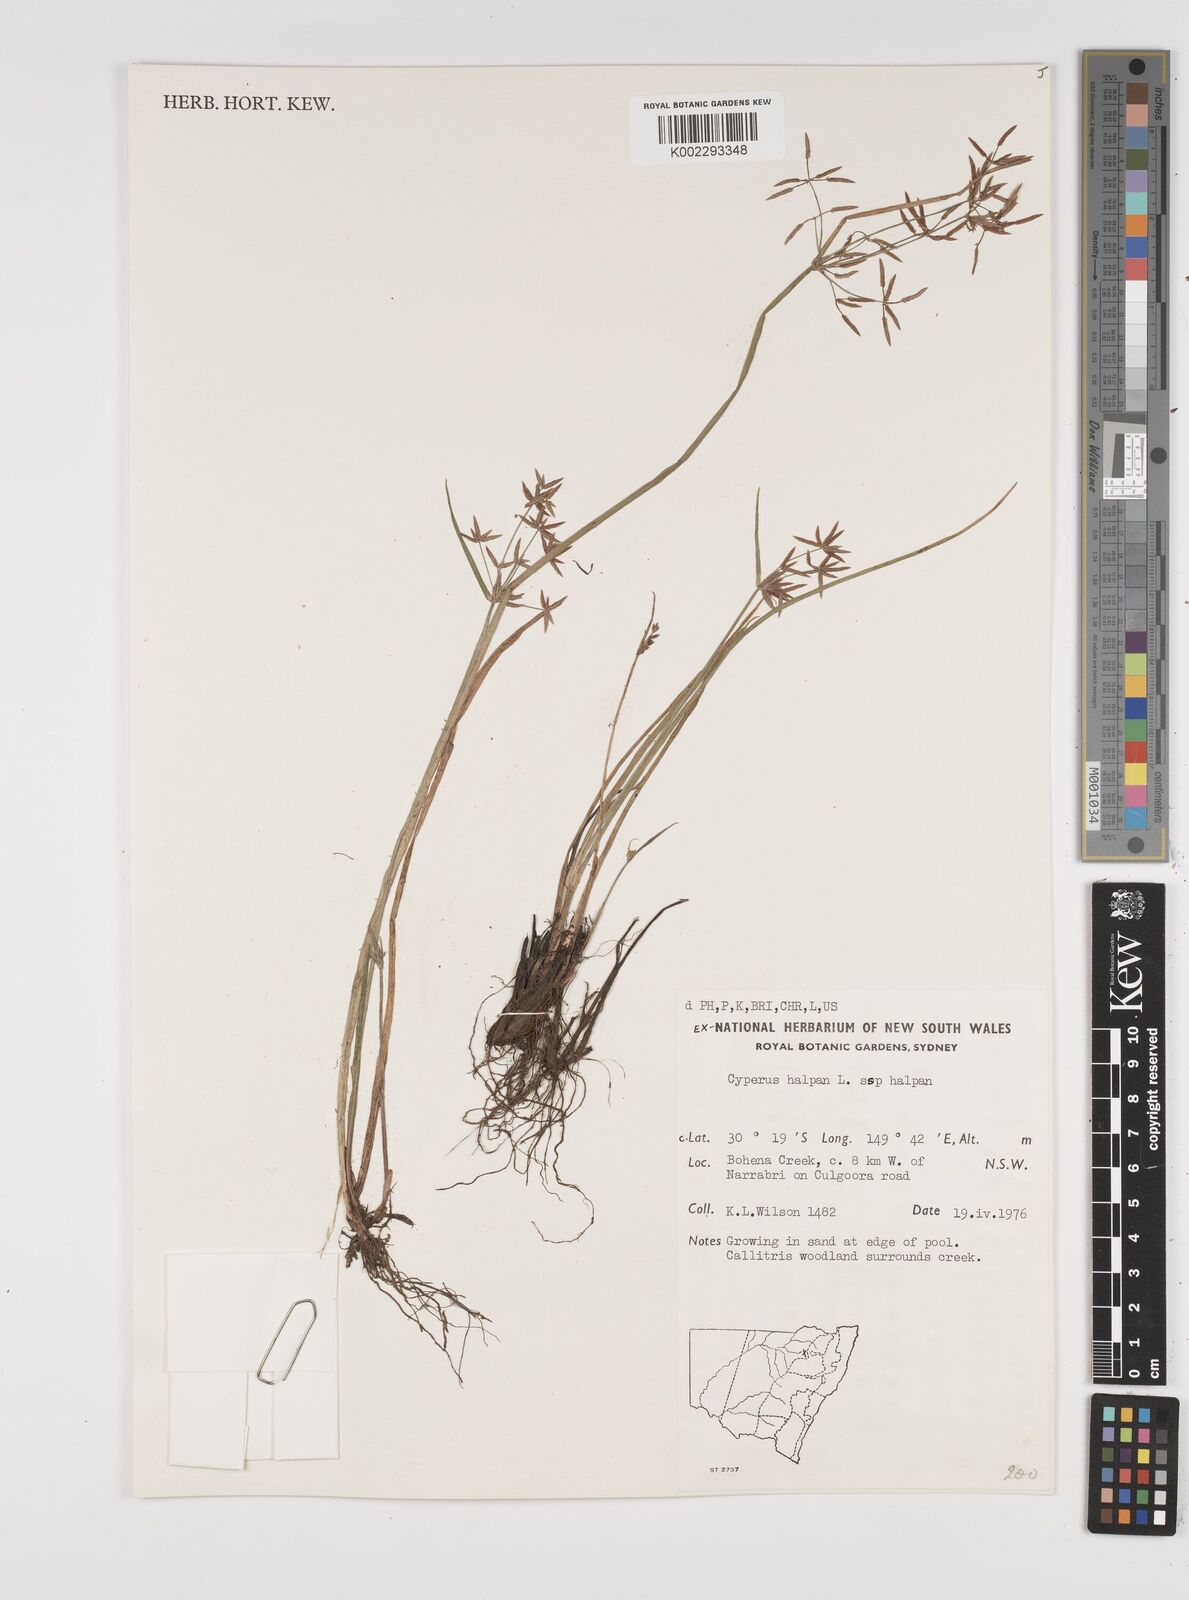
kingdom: Plantae
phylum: Tracheophyta
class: Liliopsida
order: Poales
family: Cyperaceae
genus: Cyperus
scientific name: Cyperus haspan
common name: Haspan flatsedge
